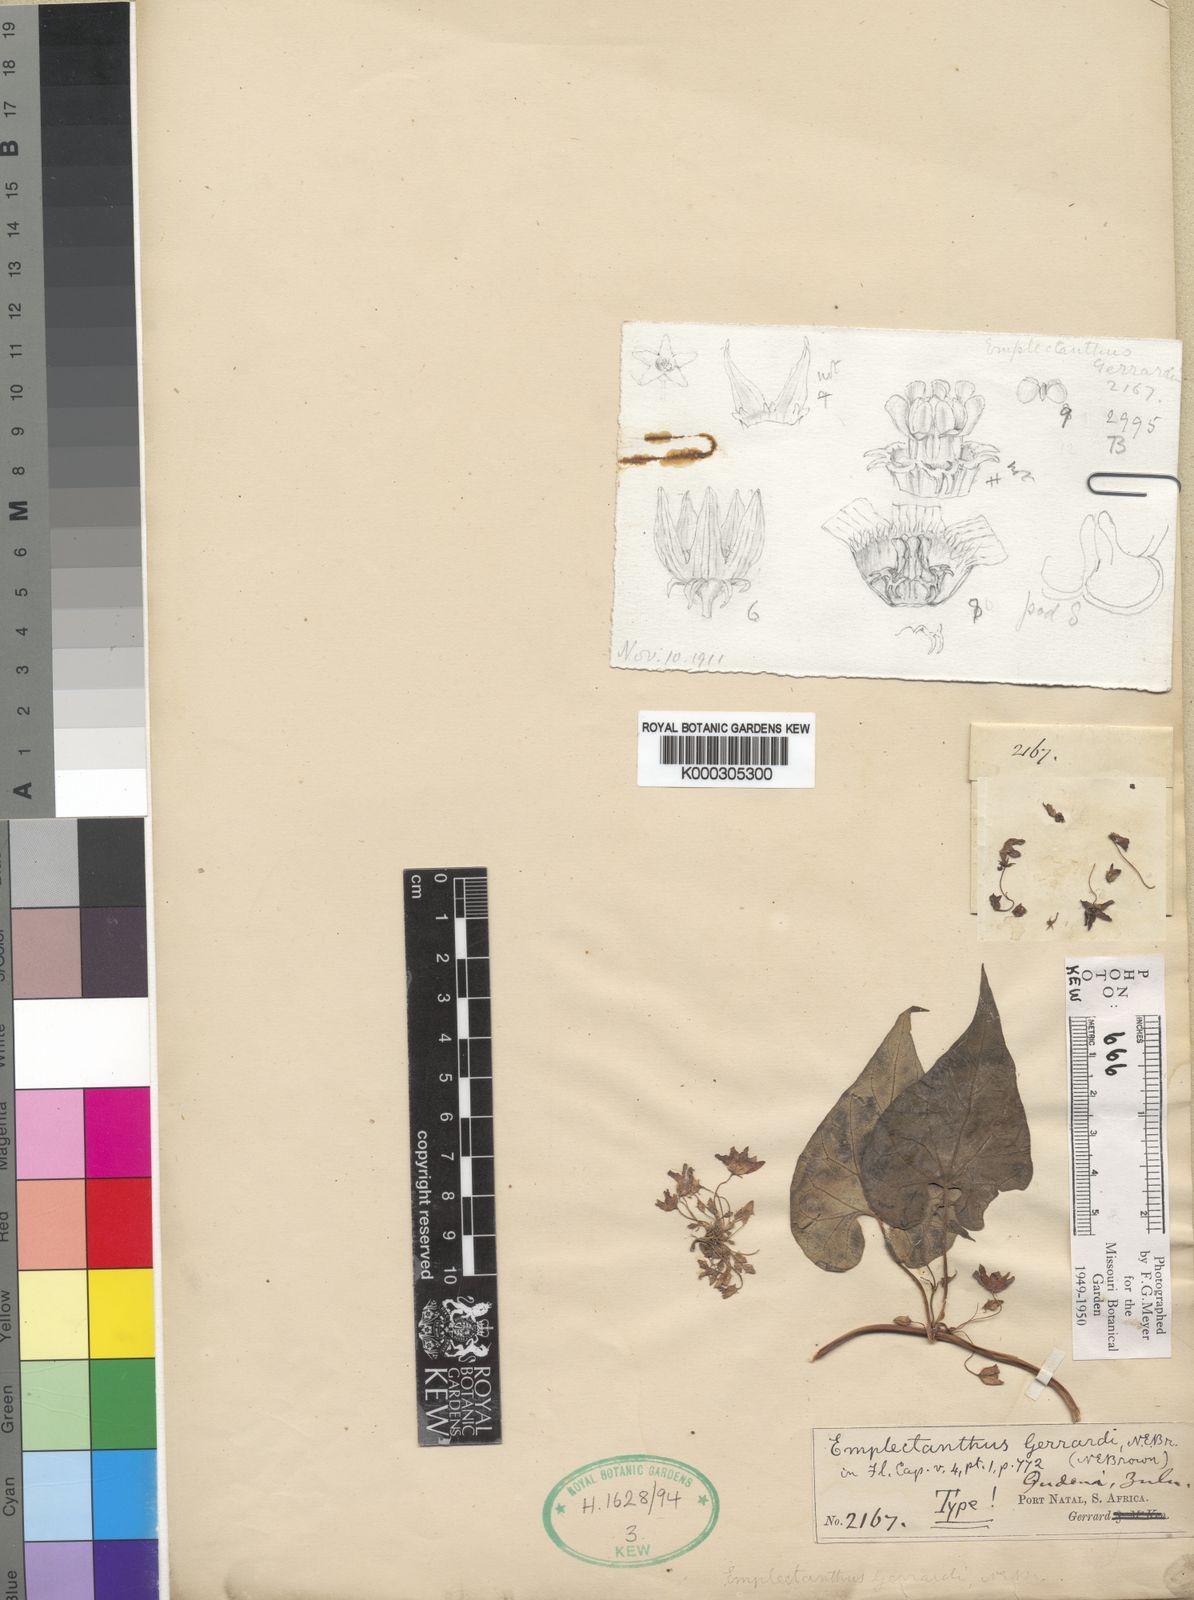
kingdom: Plantae
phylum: Tracheophyta
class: Magnoliopsida
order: Gentianales
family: Apocynaceae
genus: Emplectanthus
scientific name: Emplectanthus gerrardii
